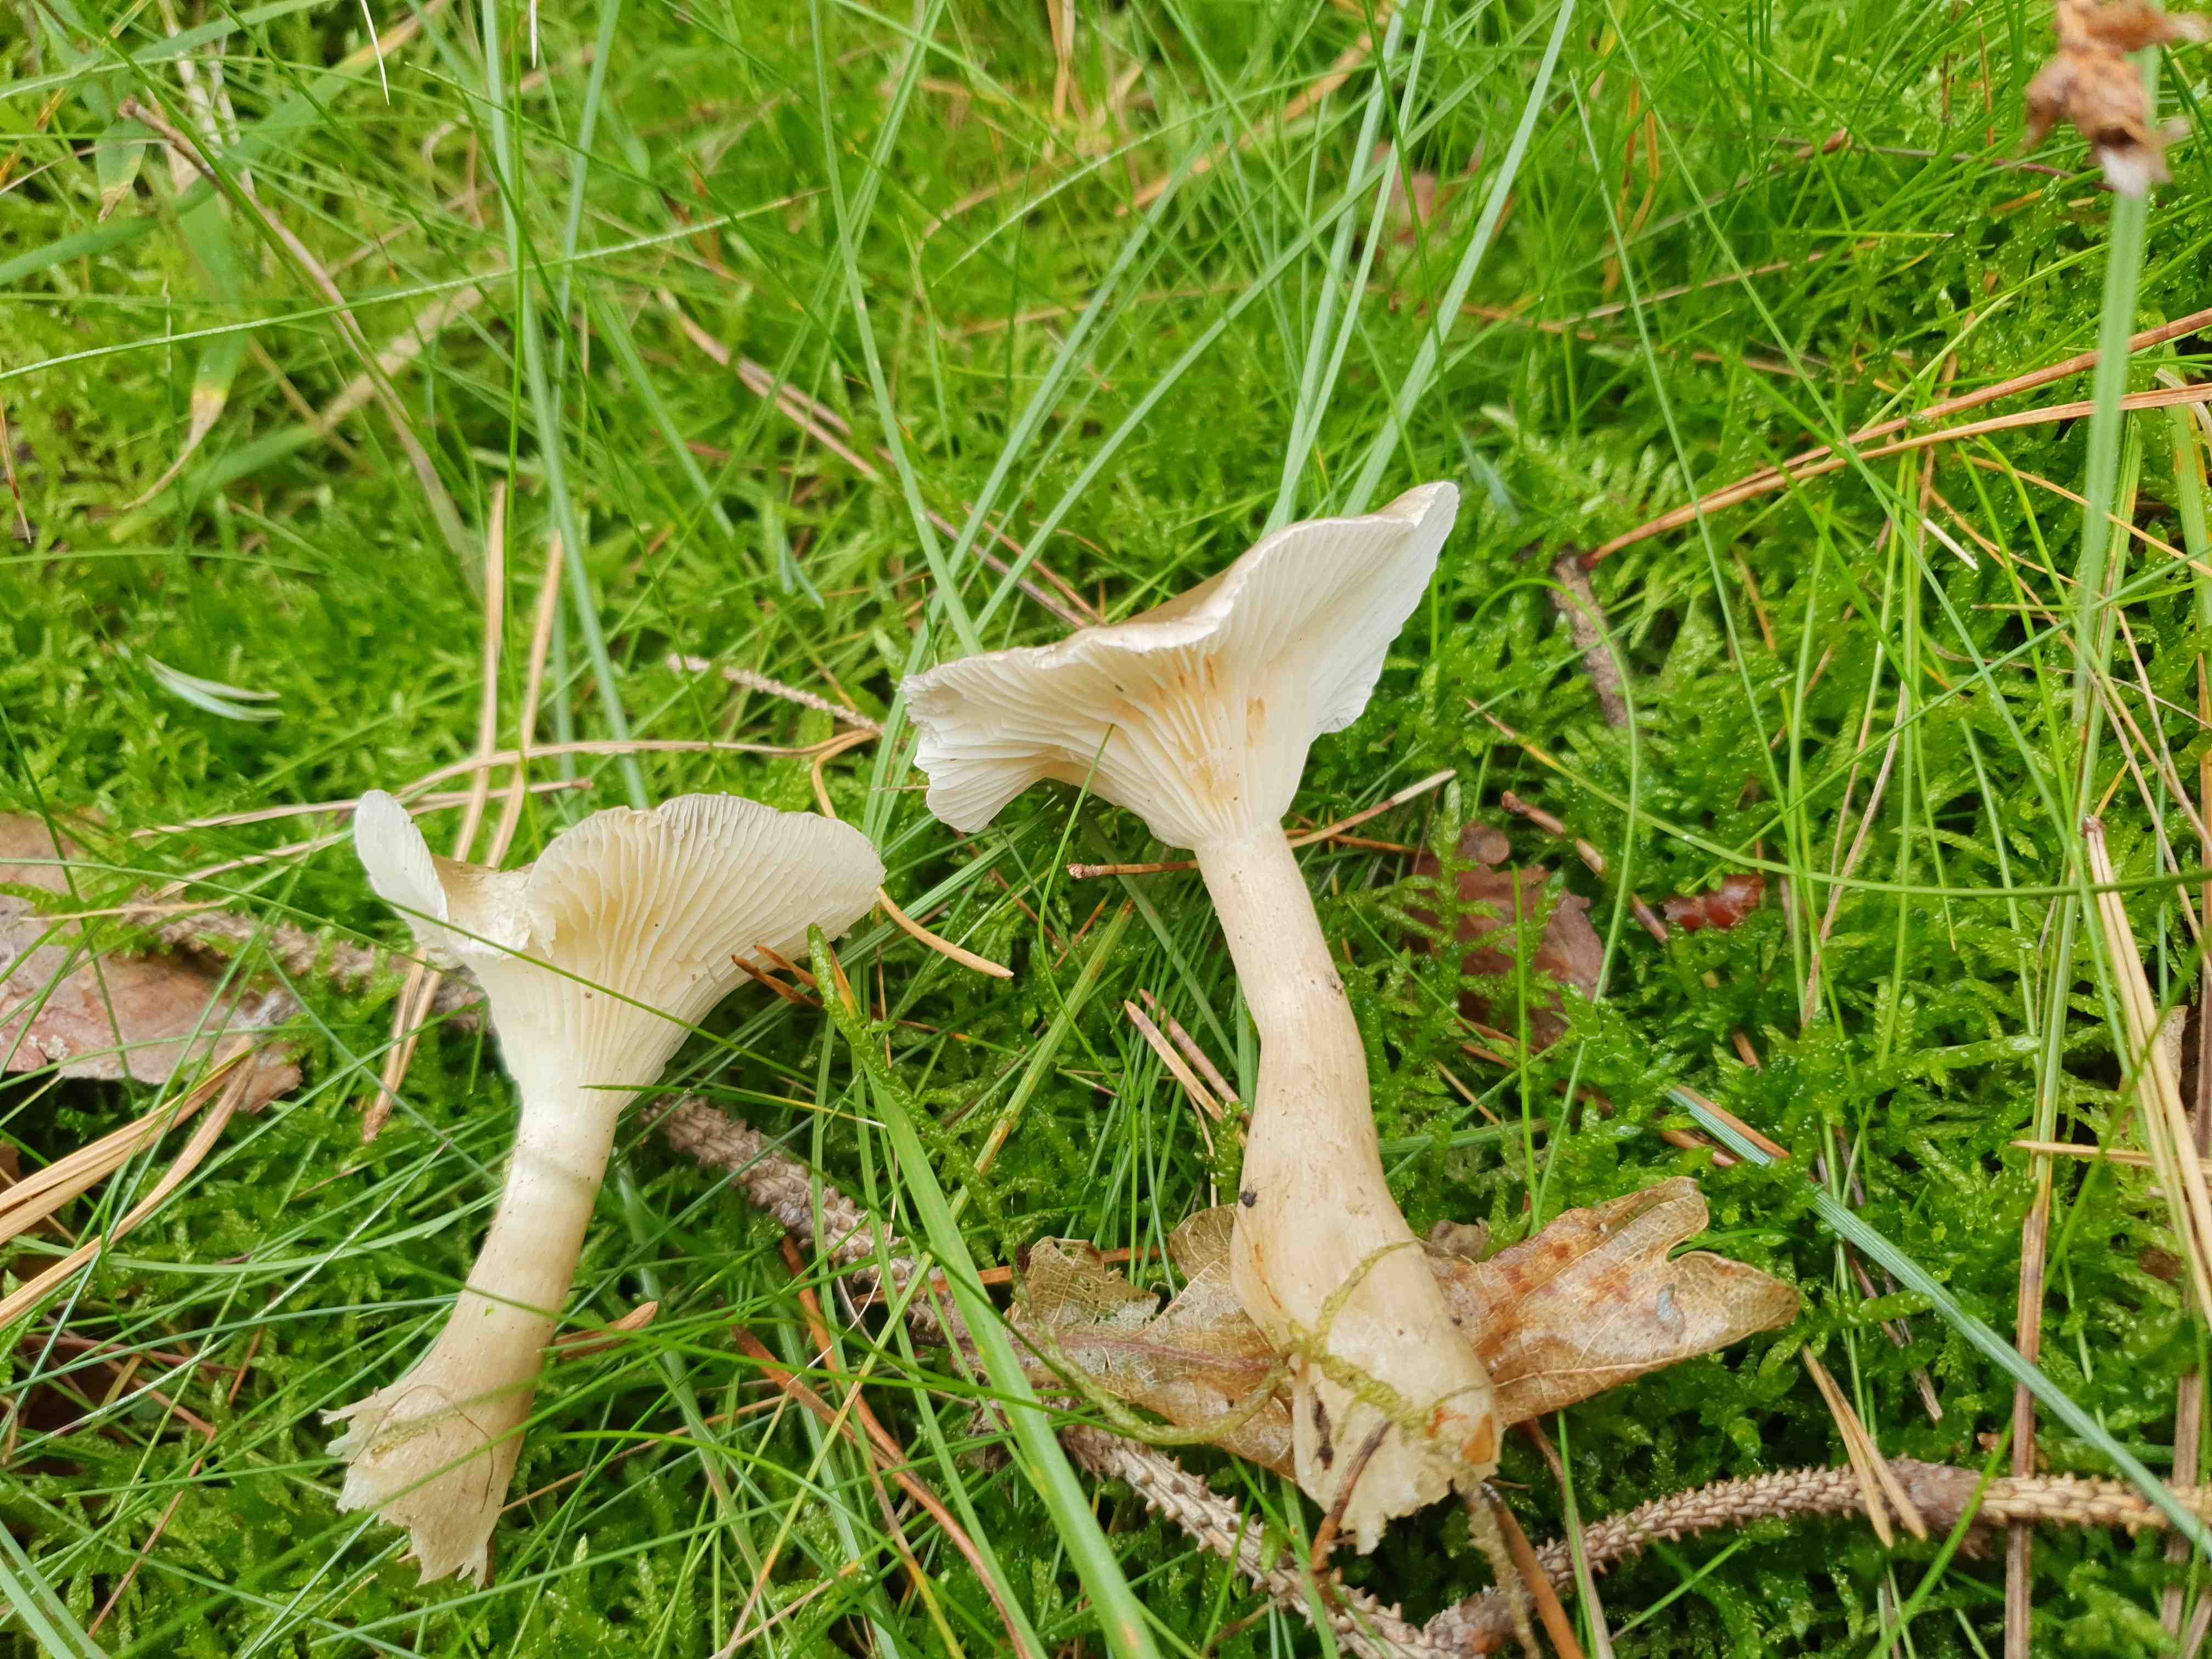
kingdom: Fungi
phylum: Basidiomycota
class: Agaricomycetes
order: Agaricales
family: Hygrophoraceae
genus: Ampulloclitocybe
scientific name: Ampulloclitocybe clavipes
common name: køllefod
